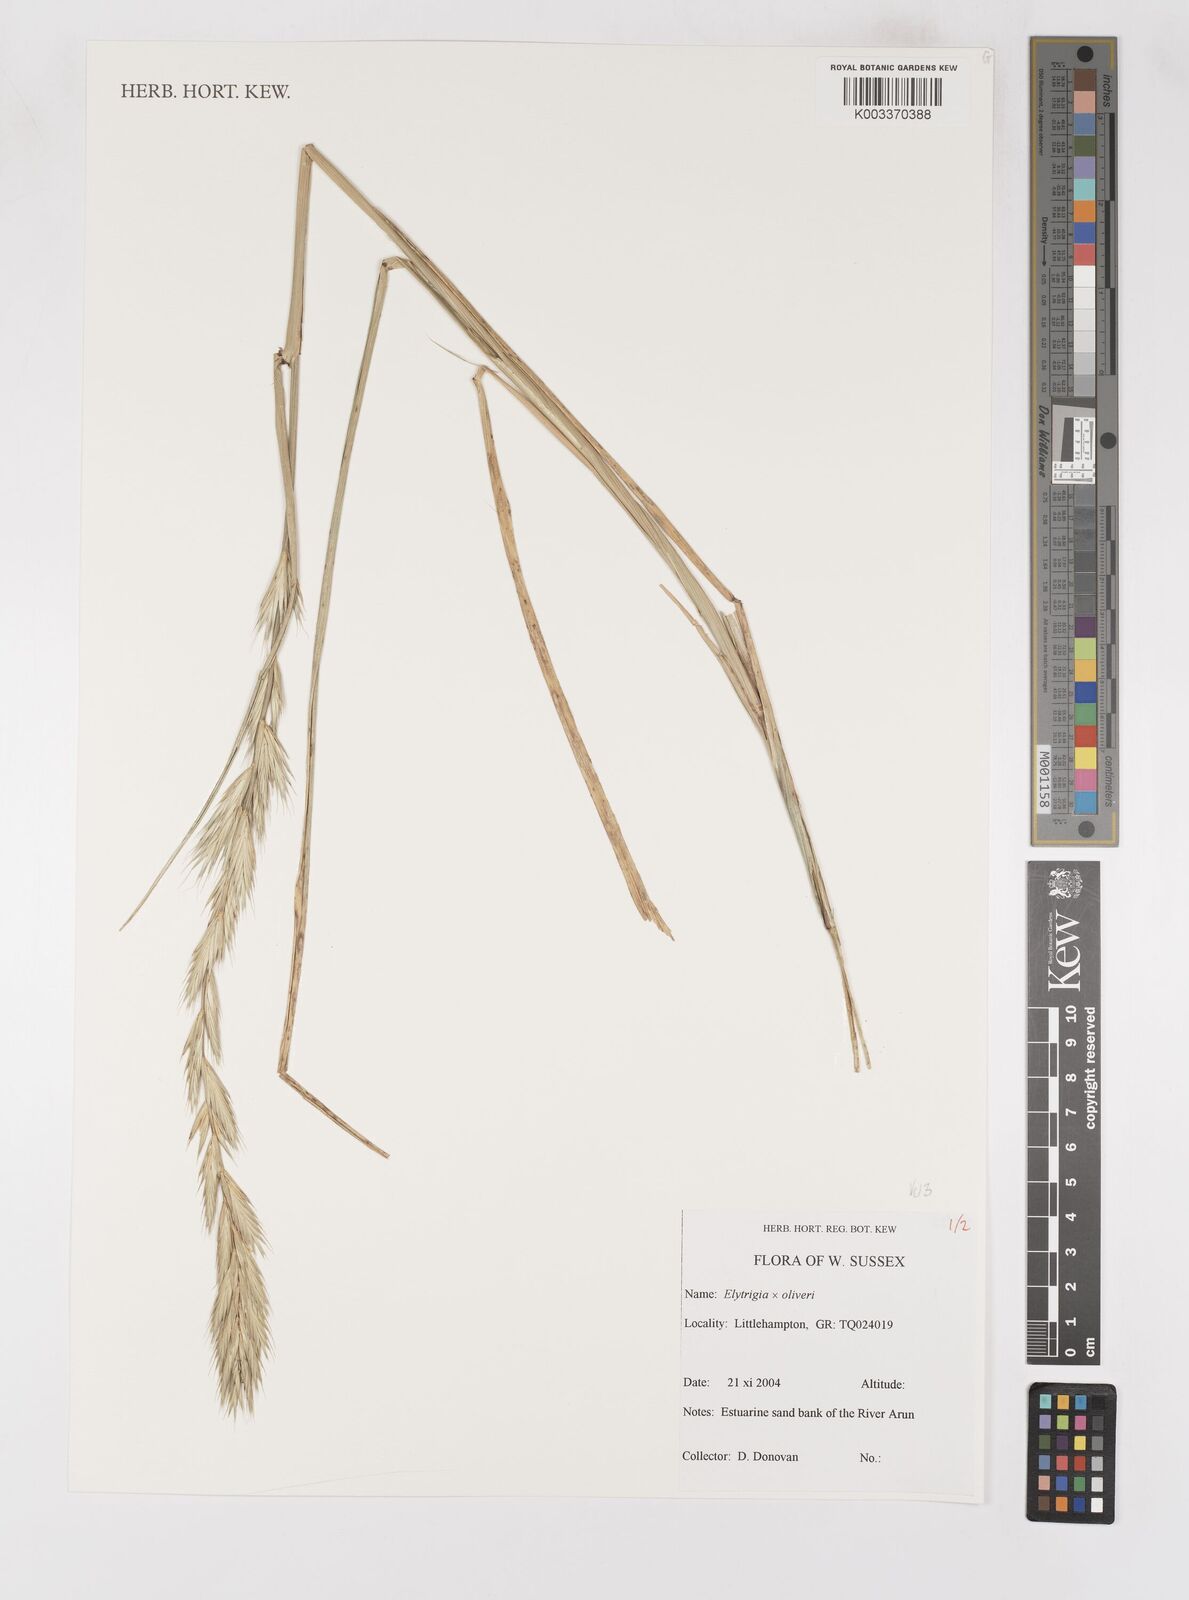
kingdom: Plantae
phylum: Tracheophyta
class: Liliopsida
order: Poales
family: Poaceae
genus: Elymus
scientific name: Elymus oliveri
